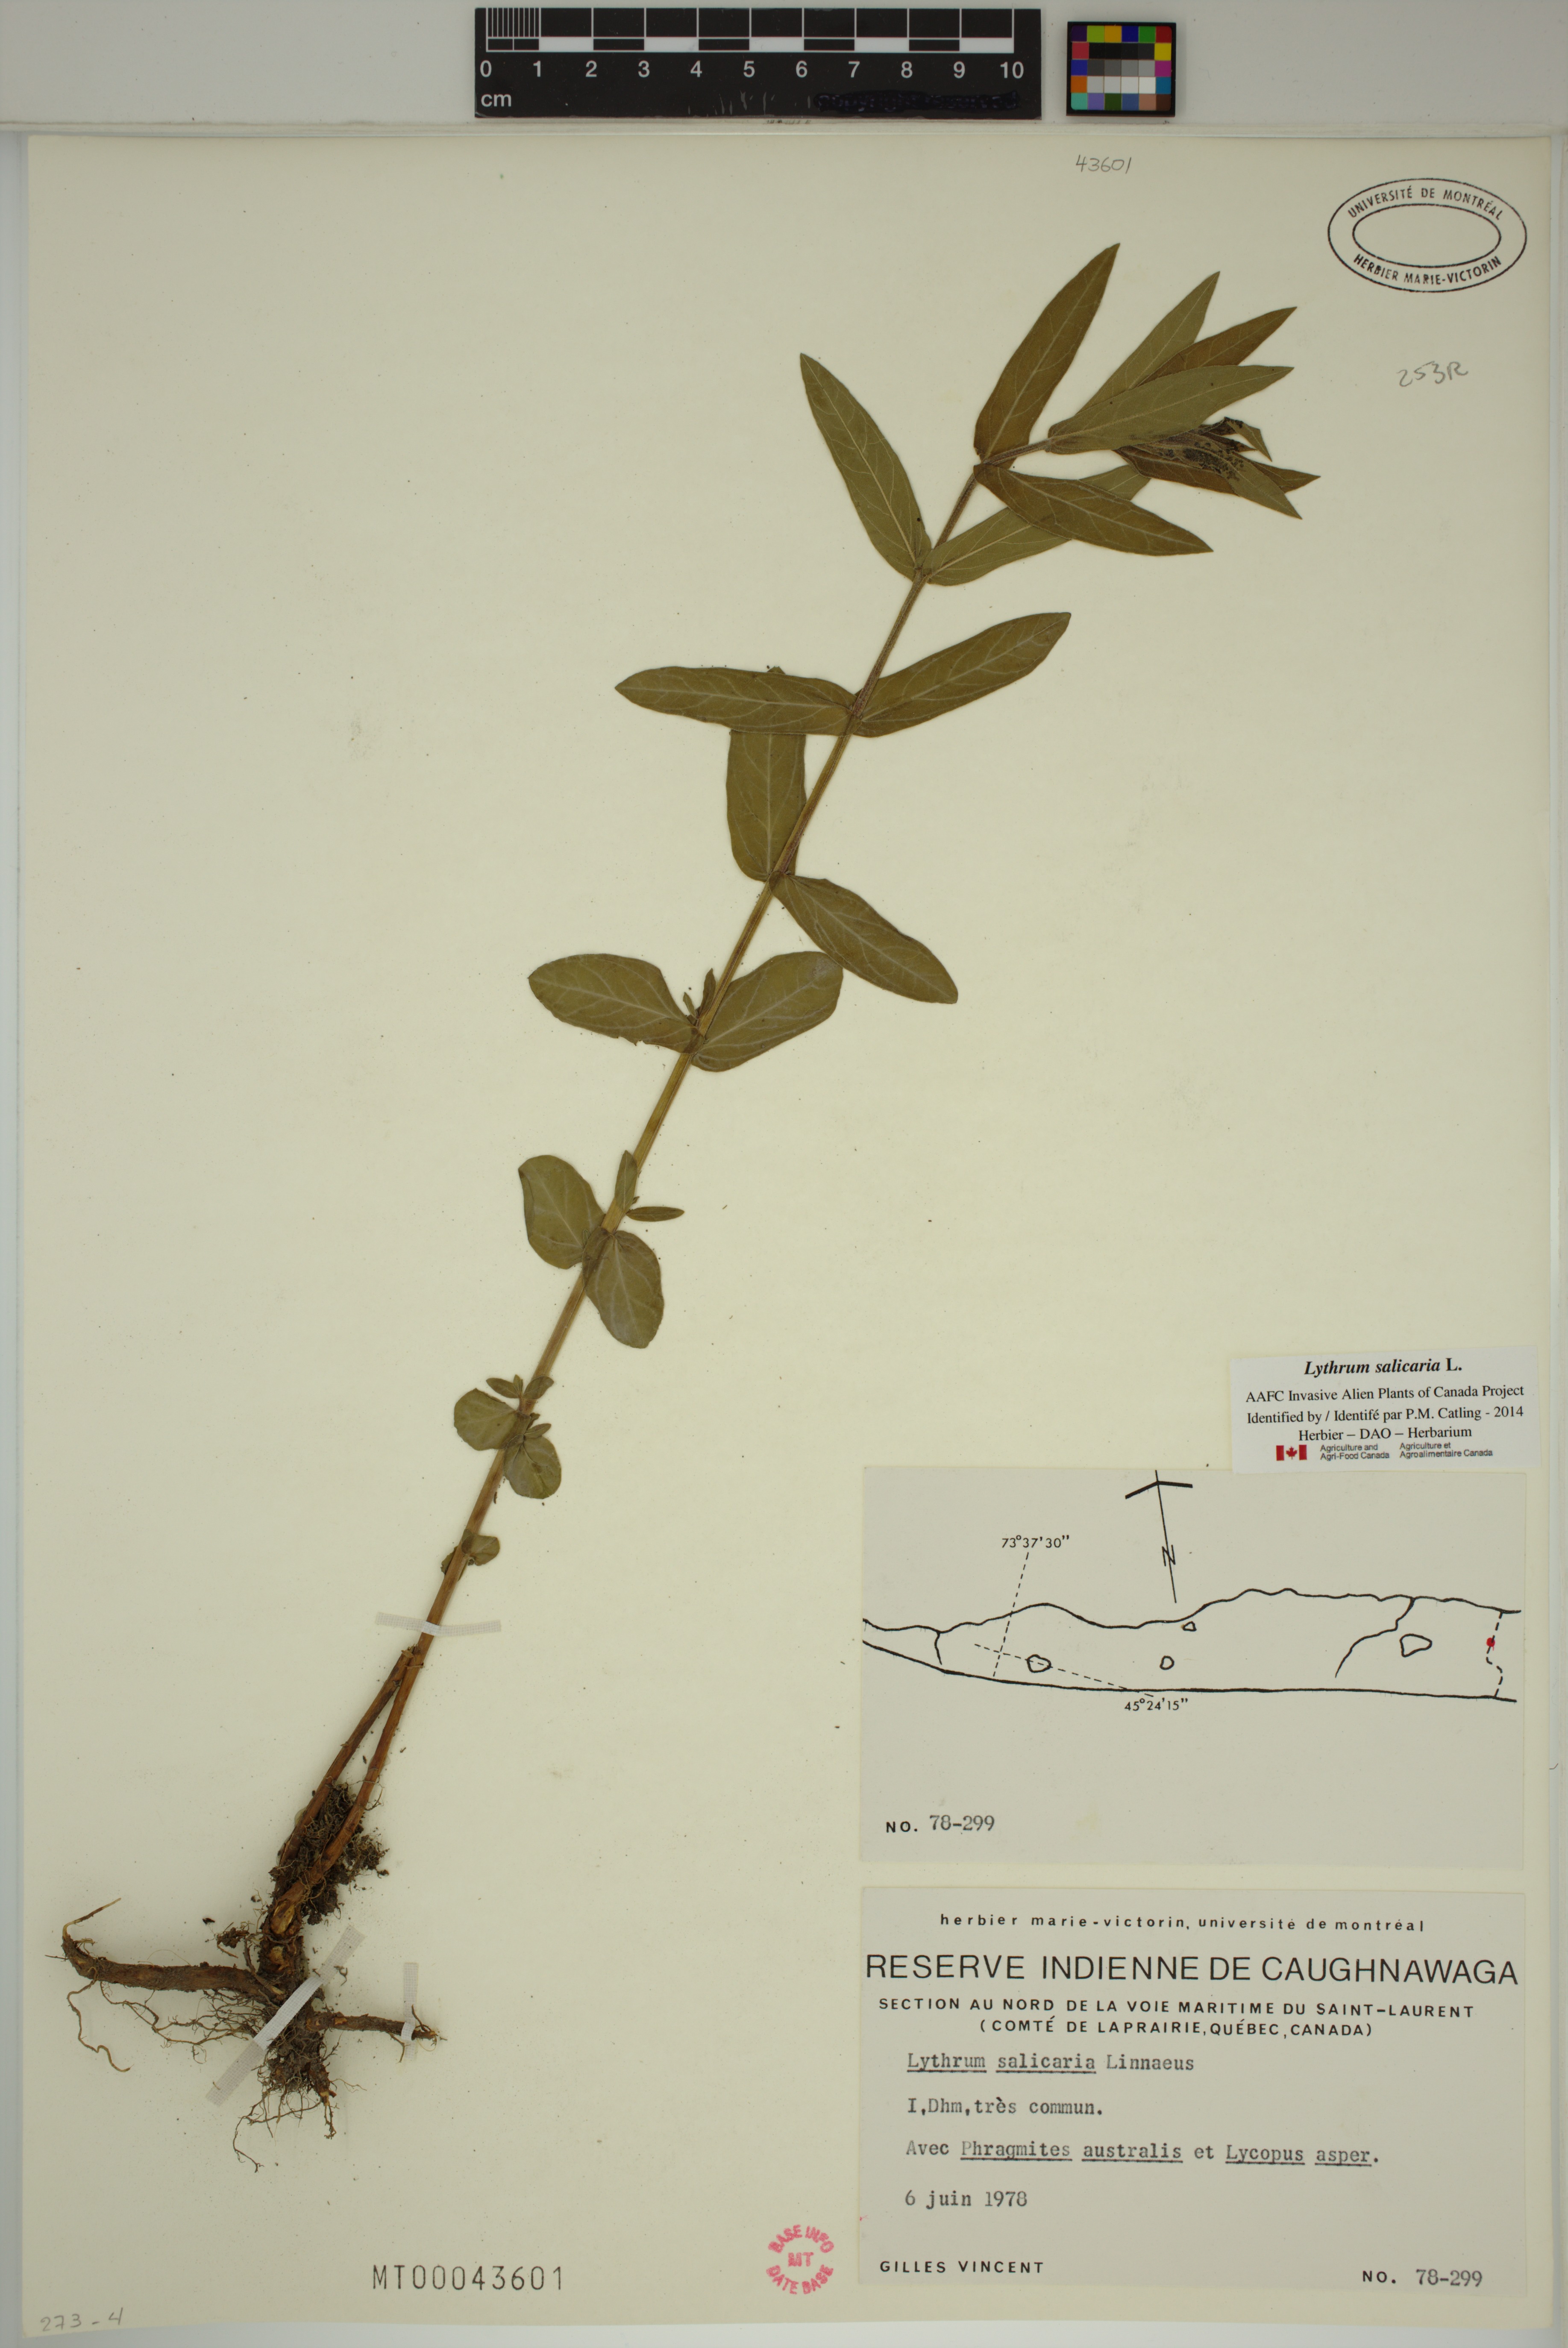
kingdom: Plantae
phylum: Tracheophyta
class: Magnoliopsida
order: Myrtales
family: Lythraceae
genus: Lythrum
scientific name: Lythrum salicaria
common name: Purple loosestrife
